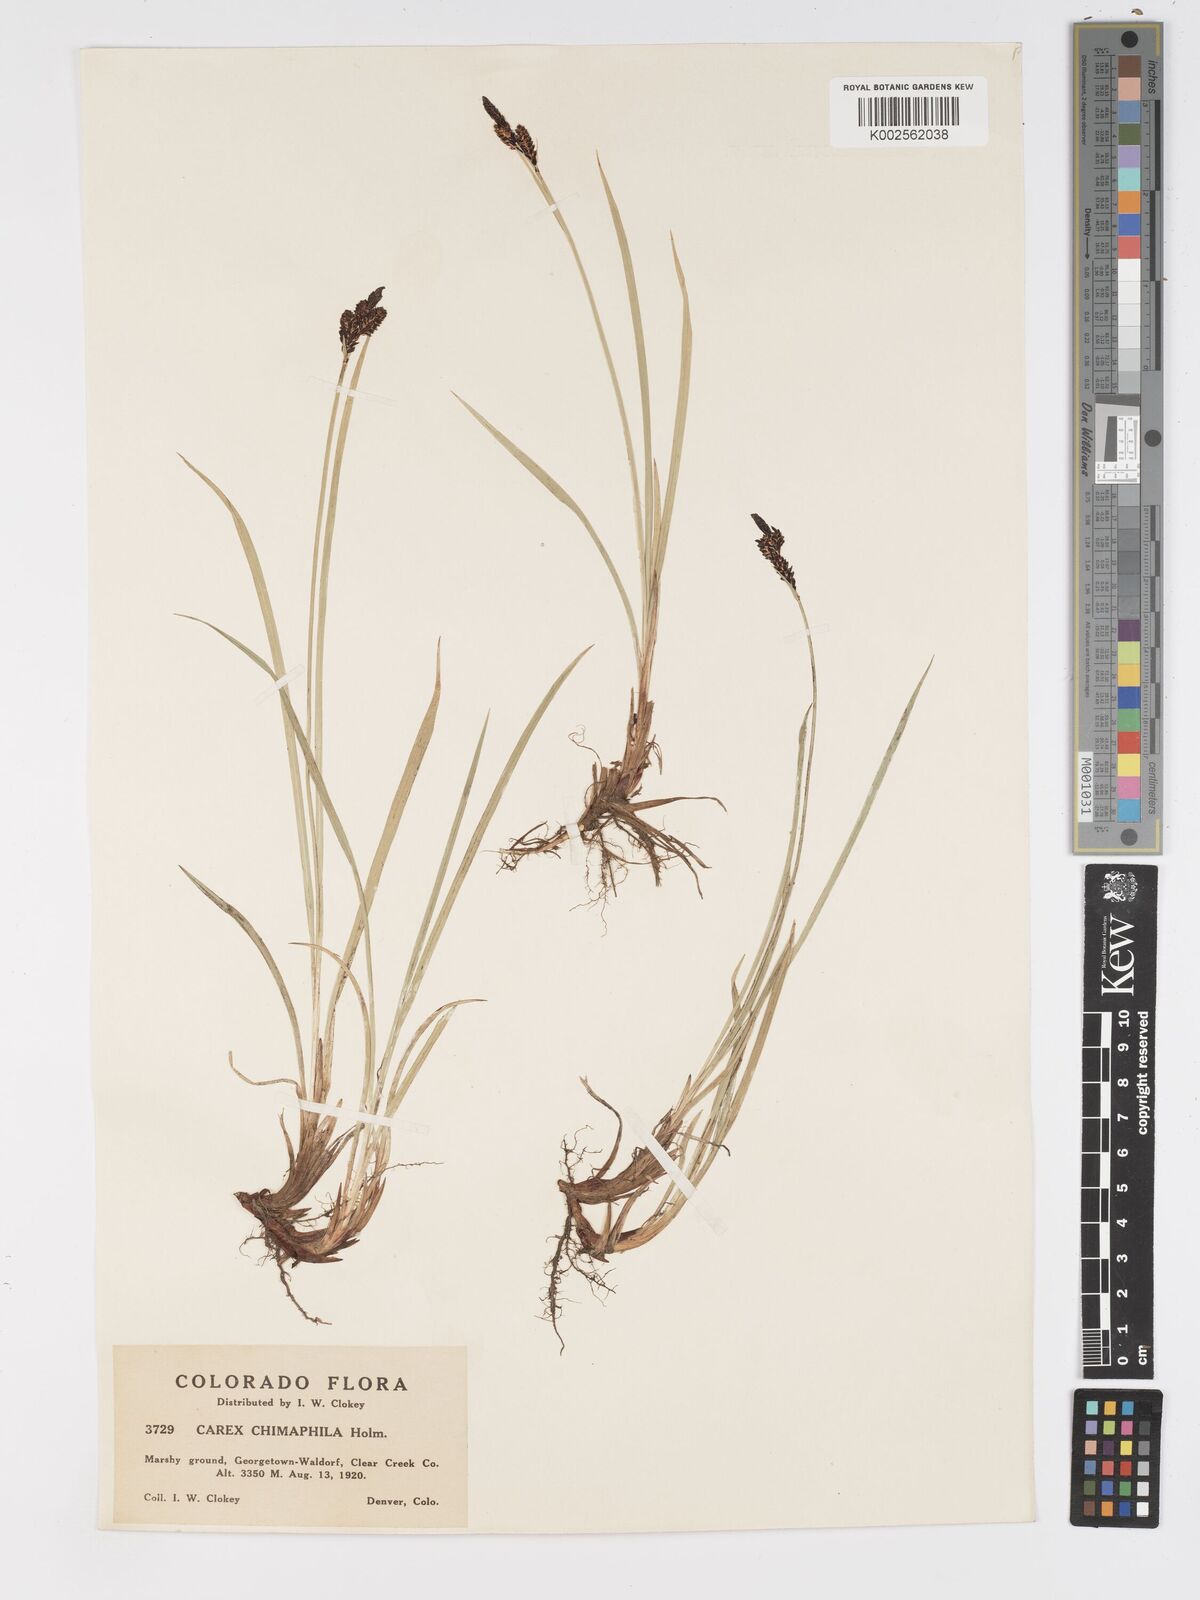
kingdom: Plantae
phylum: Tracheophyta
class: Liliopsida
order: Poales
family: Cyperaceae
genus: Carex
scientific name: Carex scopulorum
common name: Holm's rocky mountain sedge
